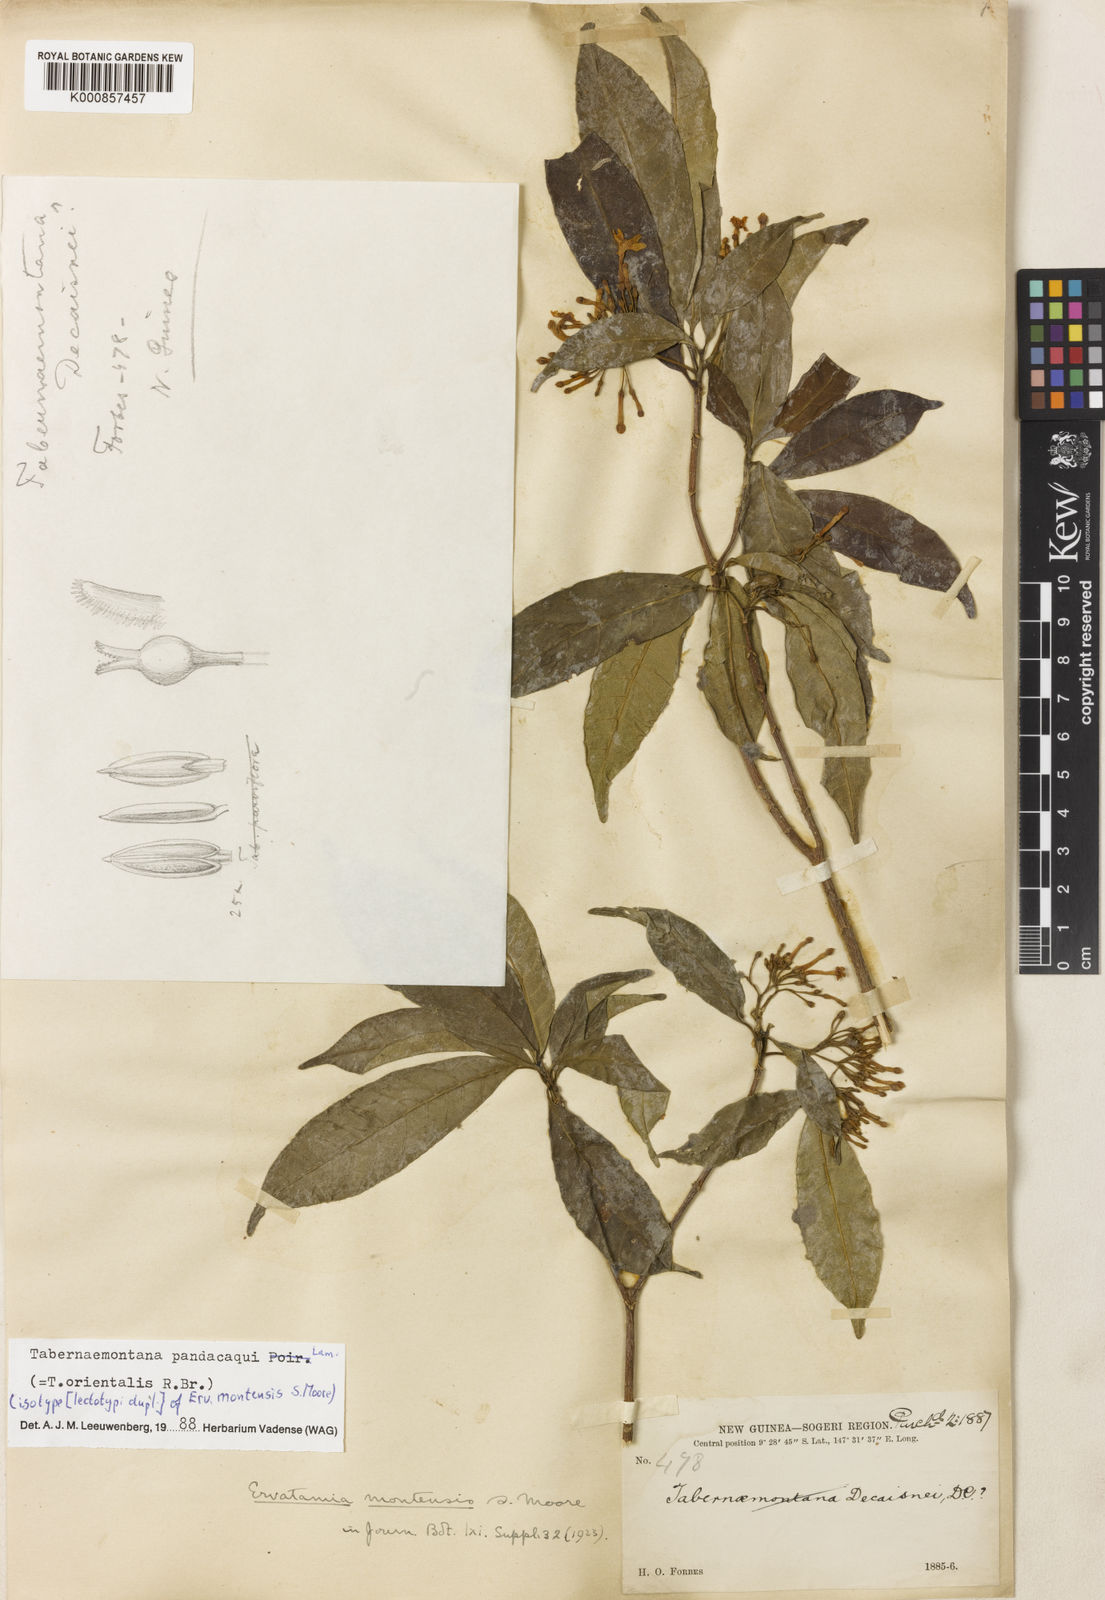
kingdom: Plantae
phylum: Tracheophyta
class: Magnoliopsida
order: Gentianales
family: Apocynaceae
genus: Tabernaemontana
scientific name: Tabernaemontana
